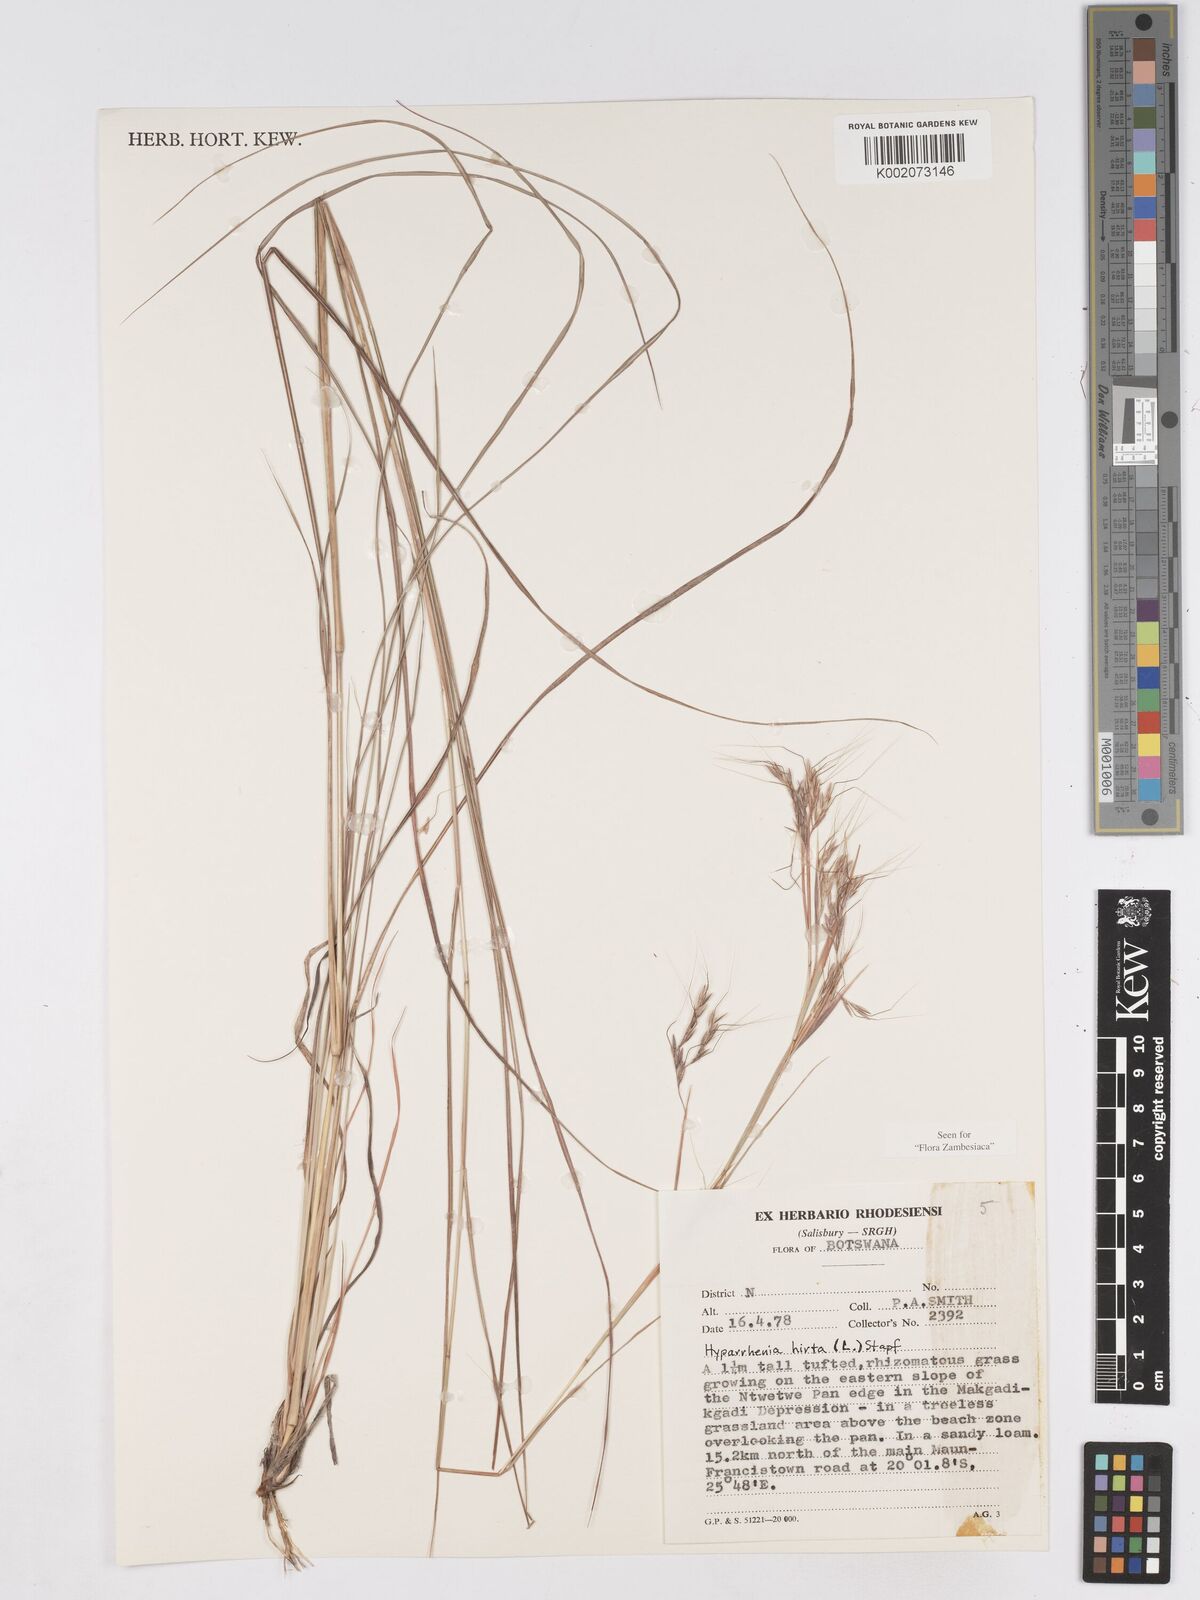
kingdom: Plantae
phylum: Tracheophyta
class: Liliopsida
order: Poales
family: Poaceae
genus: Hyparrhenia
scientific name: Hyparrhenia hirta
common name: Thatching grass
